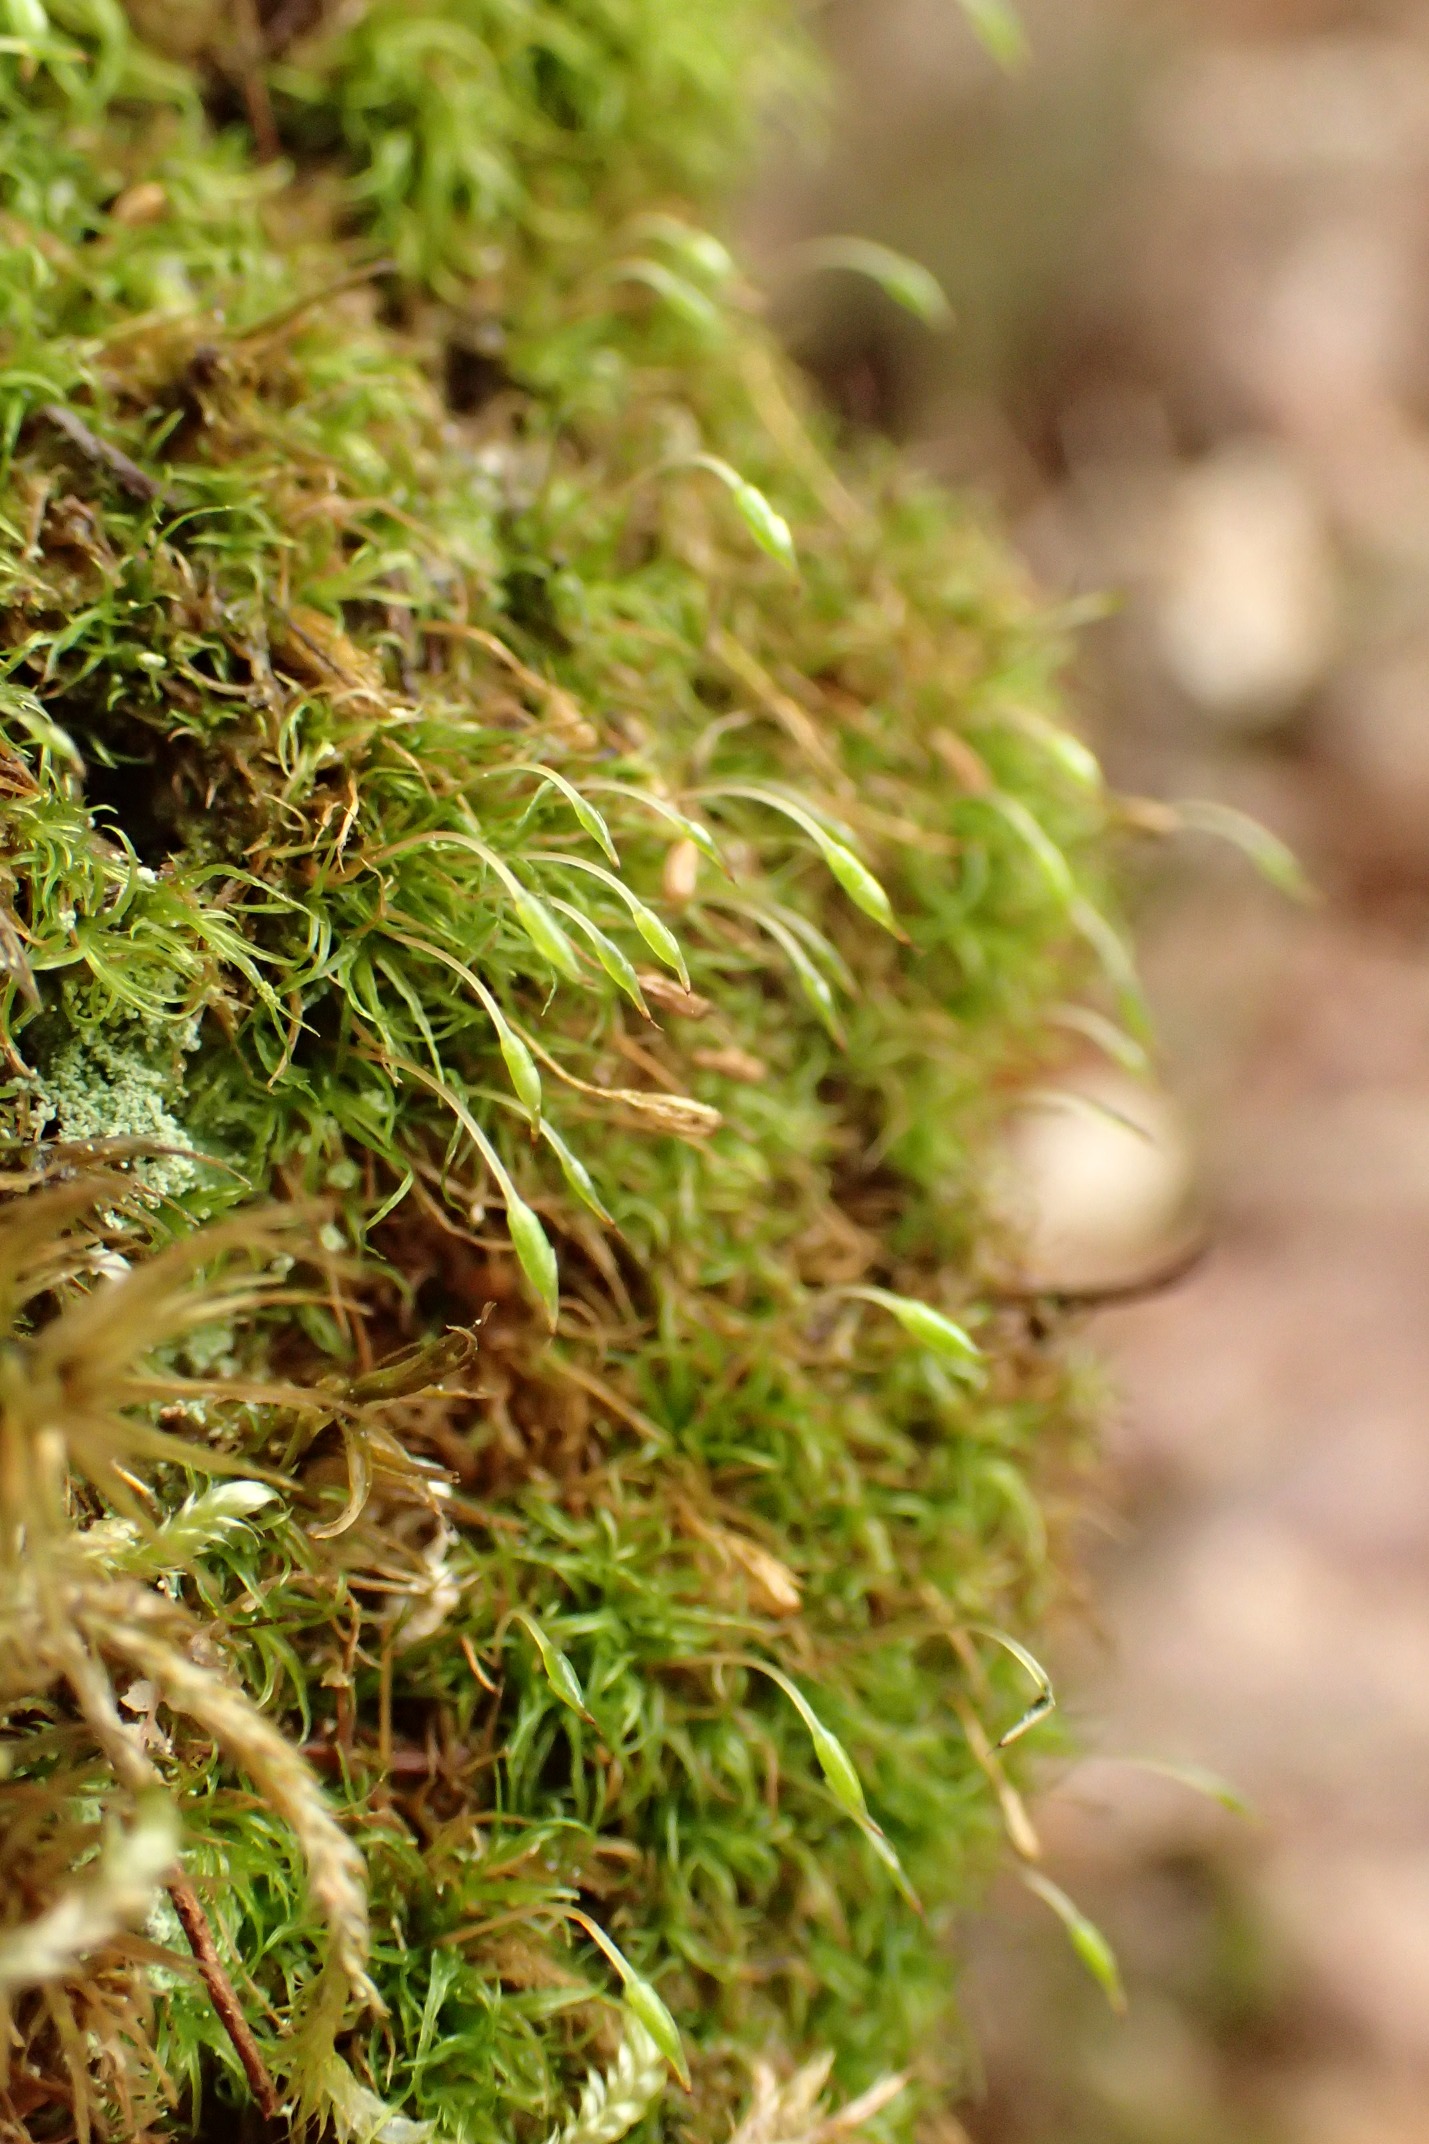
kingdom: Plantae
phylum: Bryophyta
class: Bryopsida
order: Orthodontiales
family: Orthodontiaceae
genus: Orthodontium
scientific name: Orthodontium lineare
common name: Smalbladet plysmos
